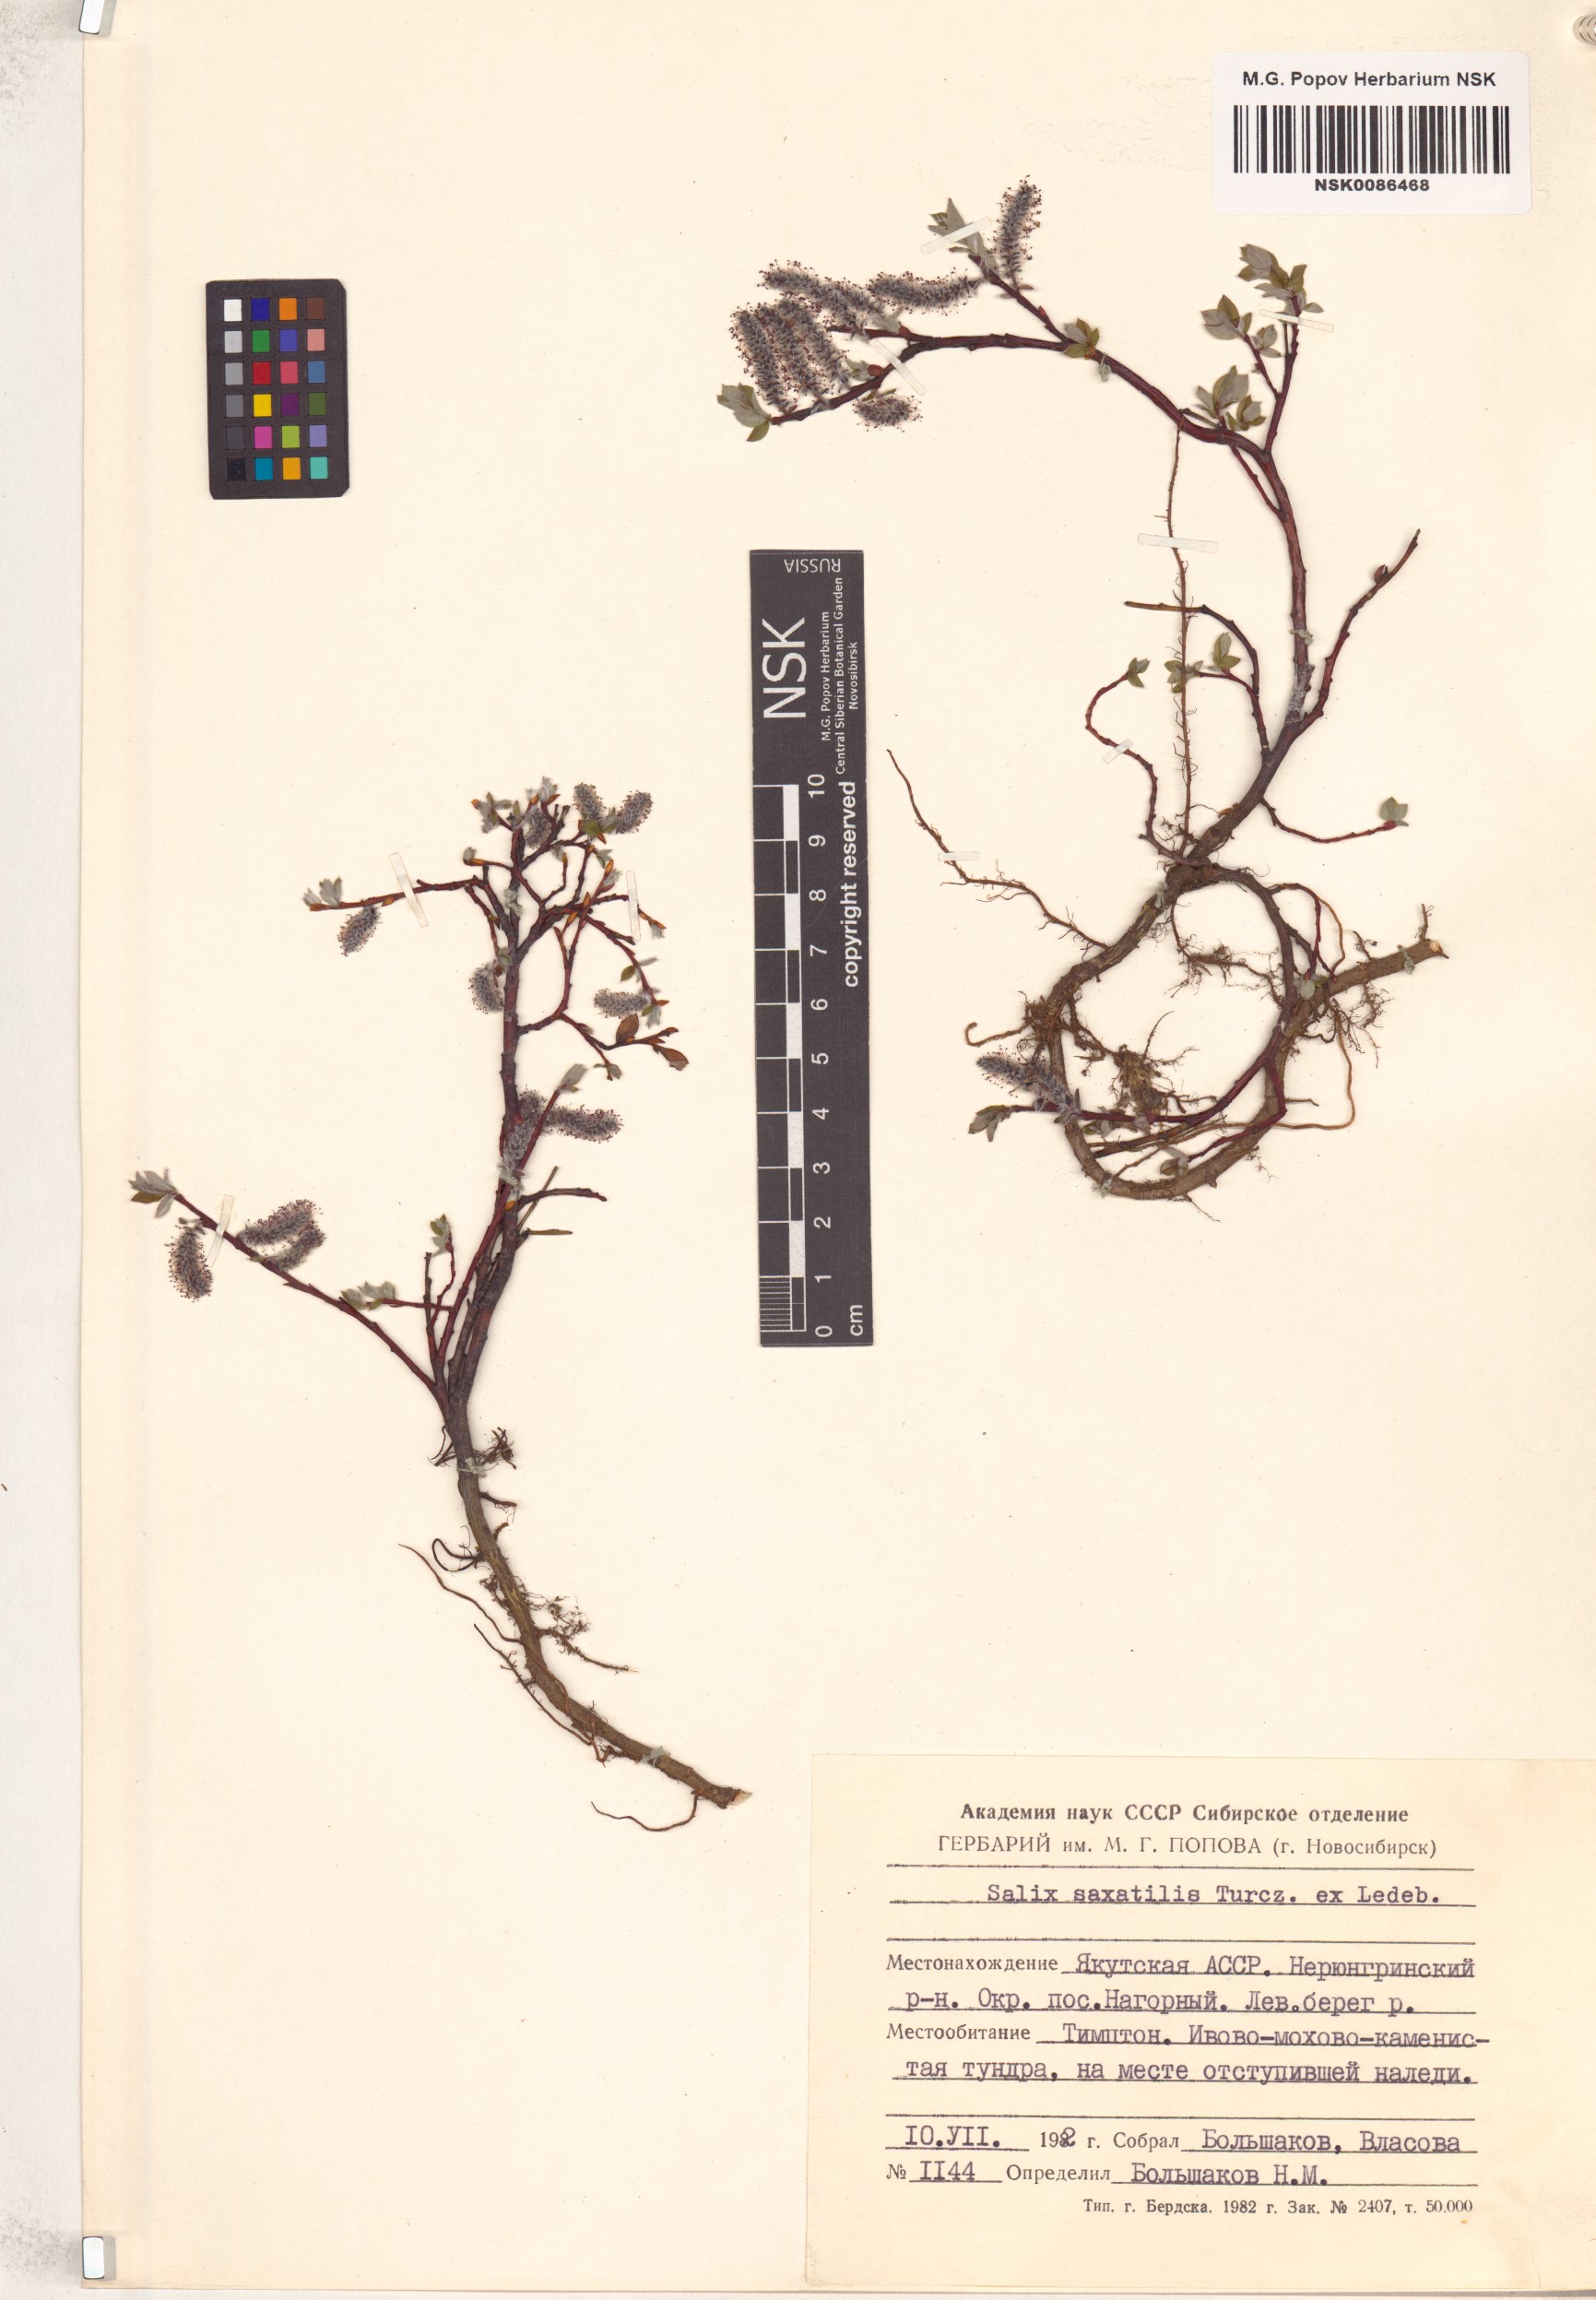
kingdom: Plantae
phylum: Tracheophyta
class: Magnoliopsida
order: Malpighiales
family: Salicaceae
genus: Salix
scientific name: Salix saxatilis
